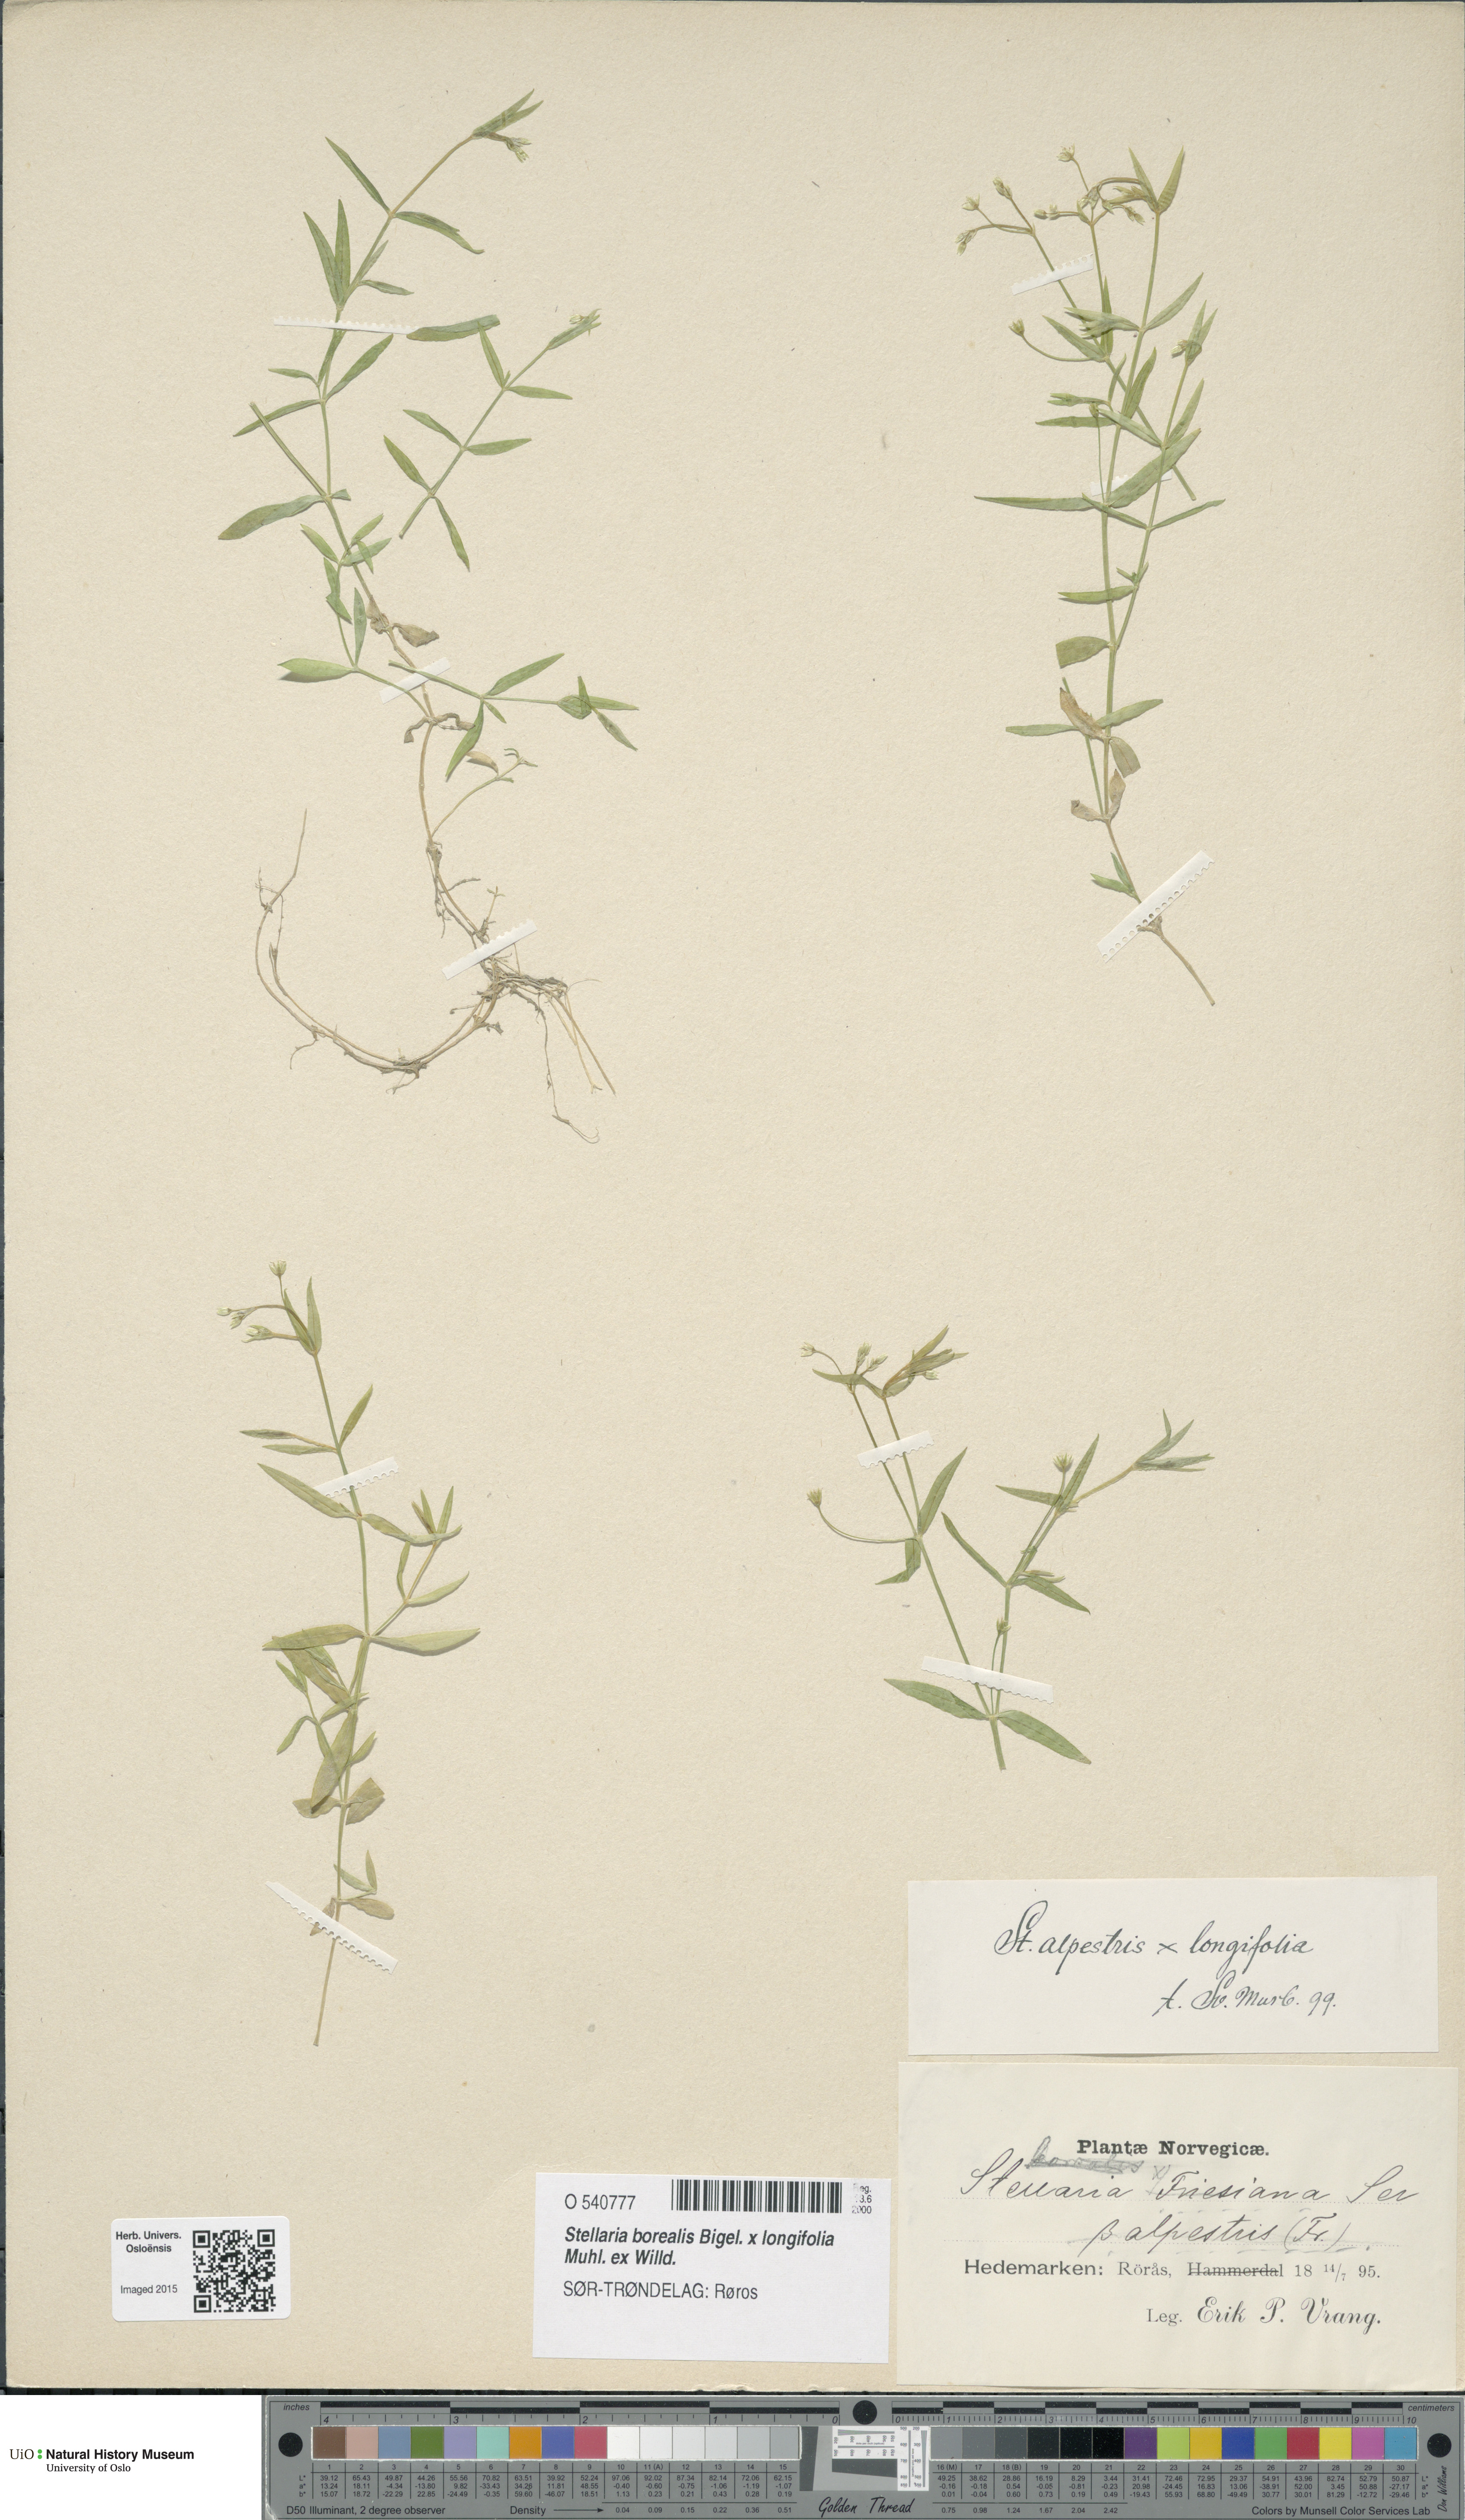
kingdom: Plantae
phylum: Tracheophyta
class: Magnoliopsida
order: Caryophyllales
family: Caryophyllaceae
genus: Stellaria
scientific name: Stellaria
